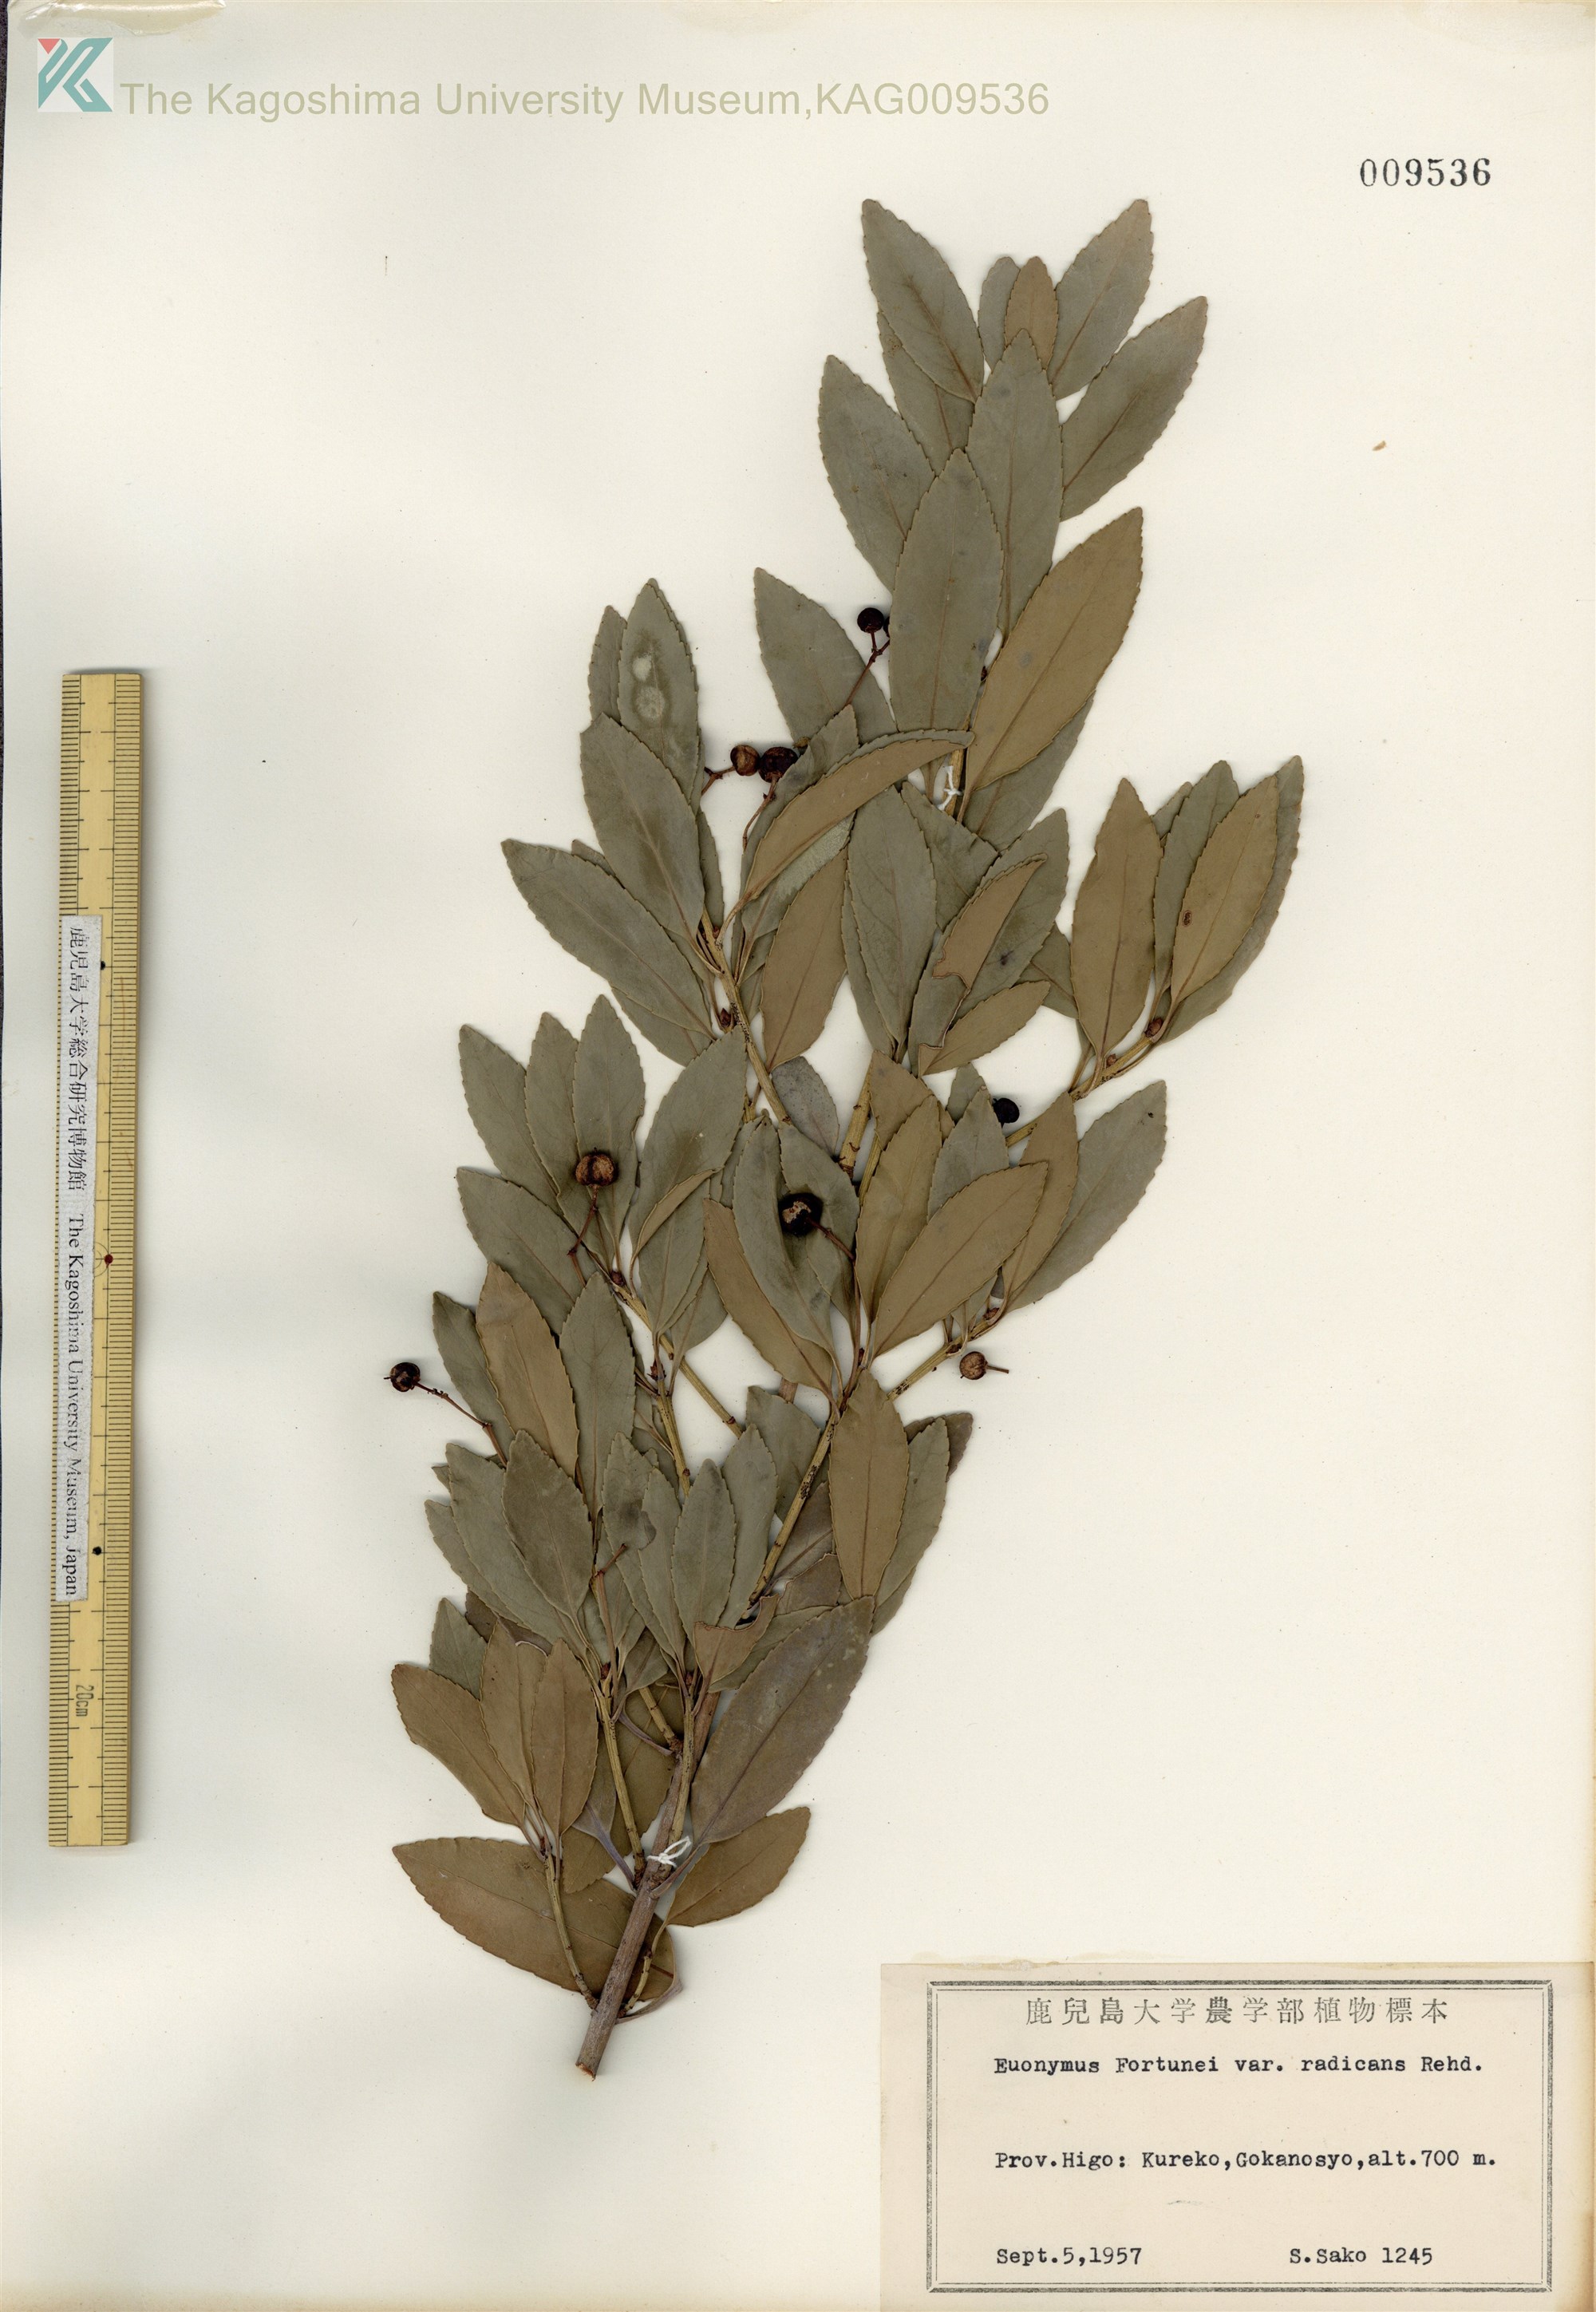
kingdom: Plantae
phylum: Tracheophyta
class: Magnoliopsida
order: Celastrales
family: Celastraceae
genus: Euonymus
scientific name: Euonymus fortunei
